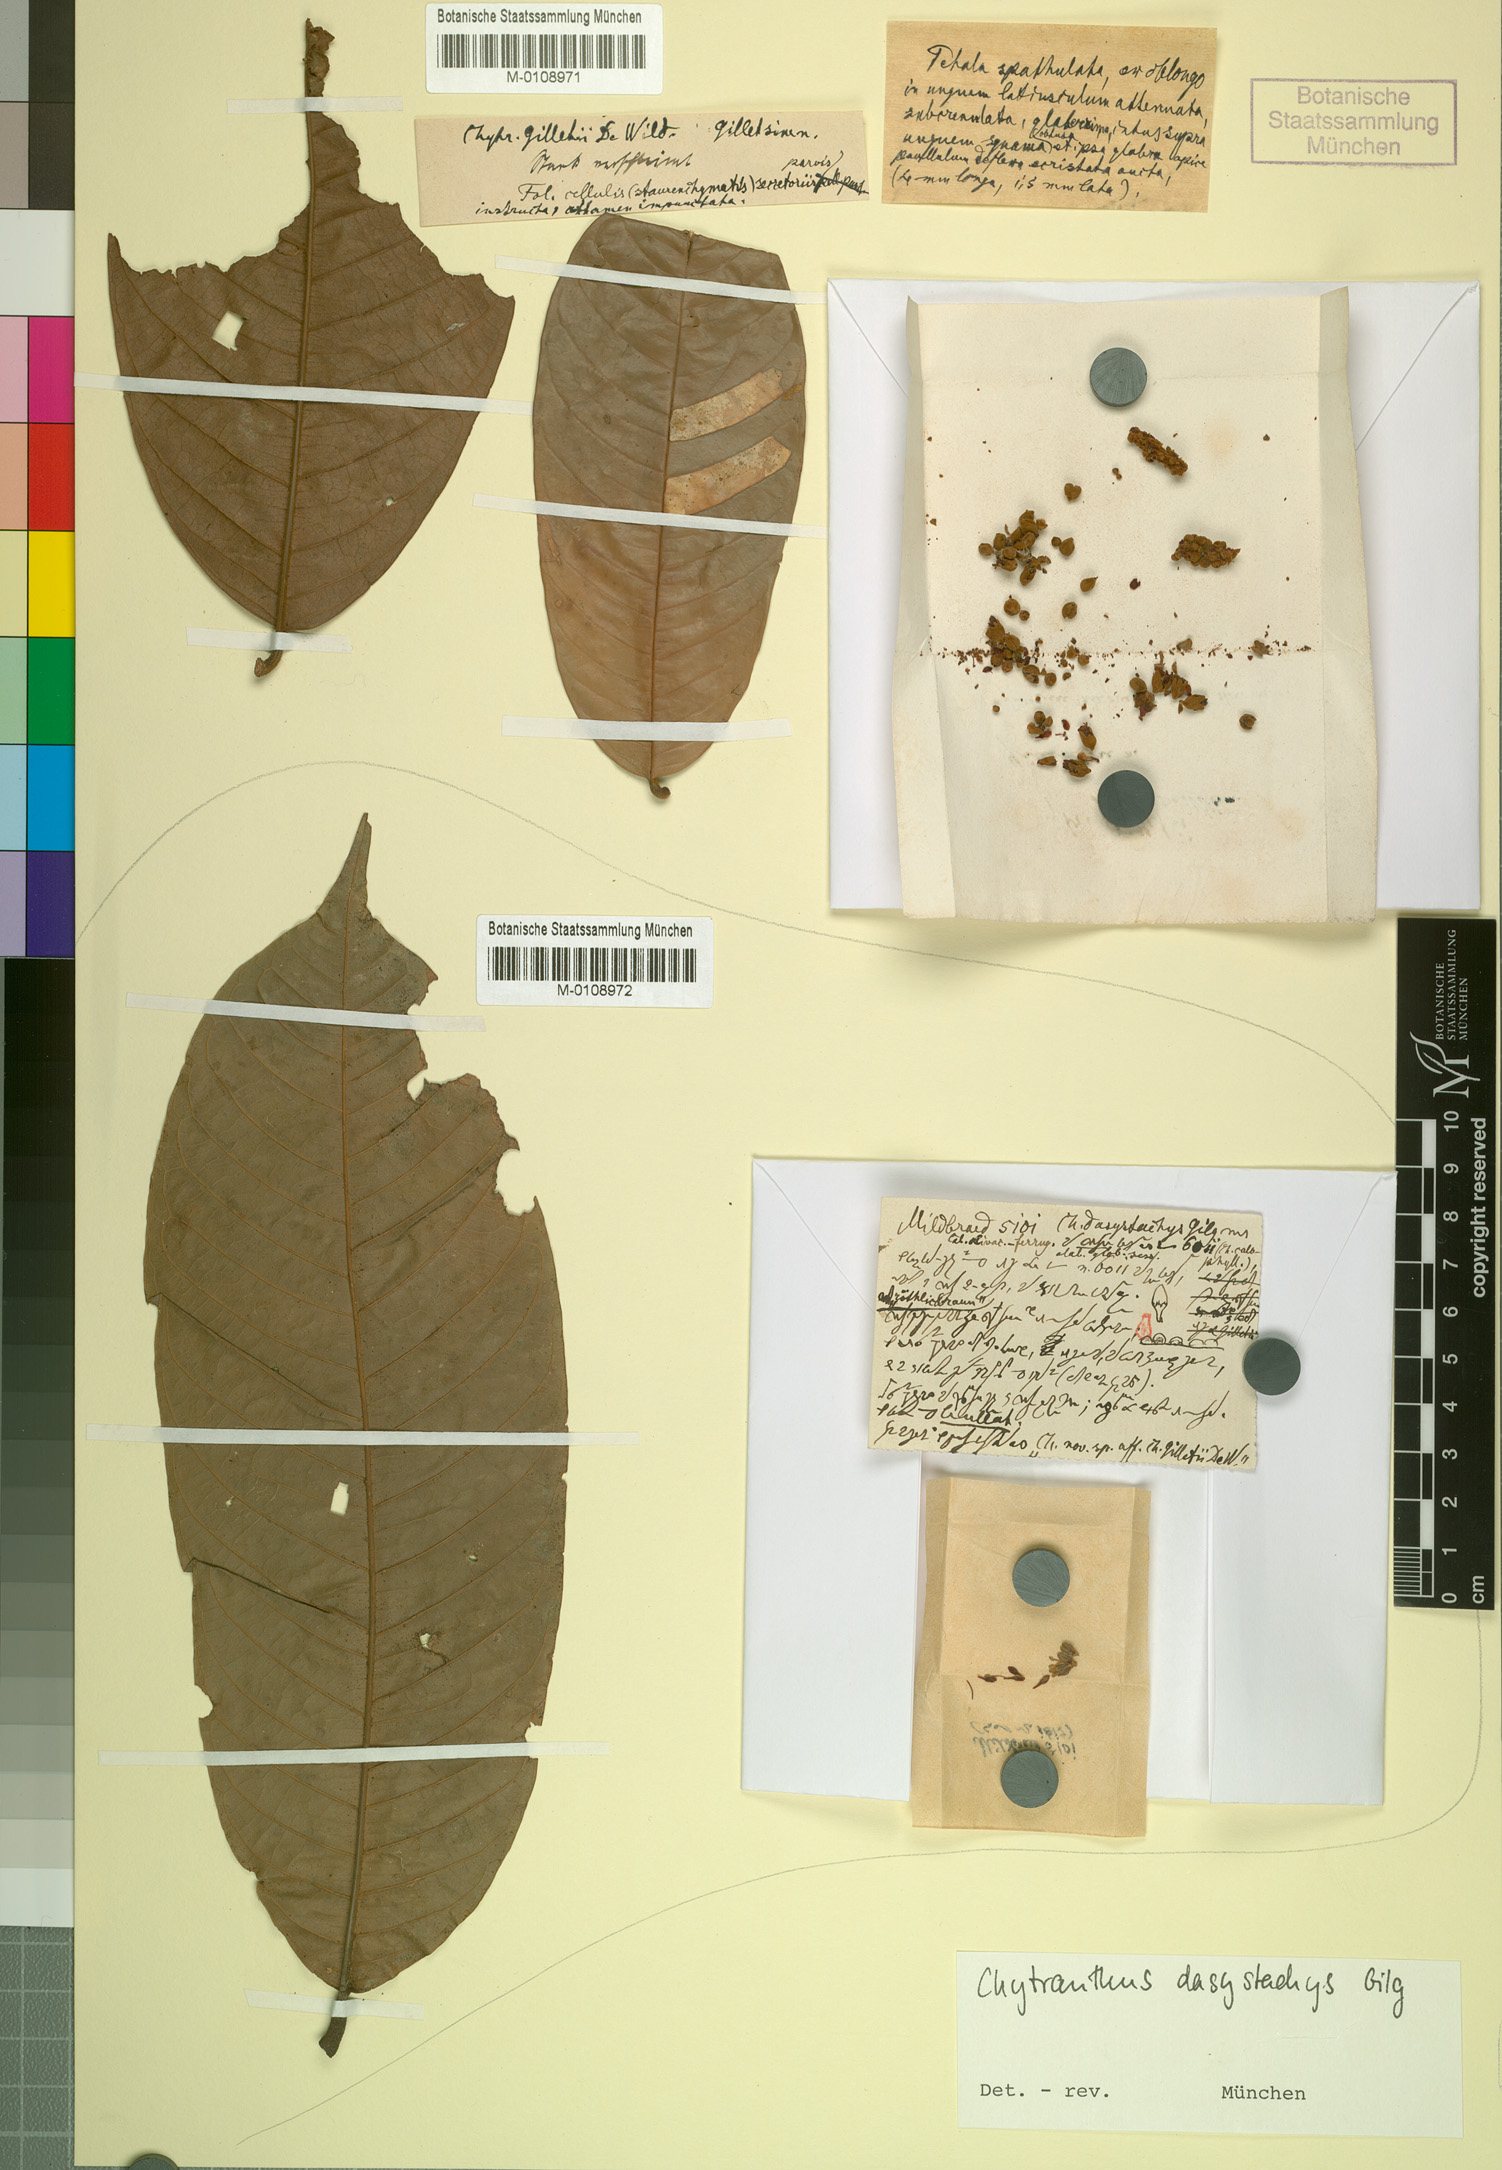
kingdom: Plantae
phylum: Tracheophyta
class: Magnoliopsida
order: Sapindales
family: Sapindaceae
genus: Chytranthus
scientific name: Chytranthus gilletii
